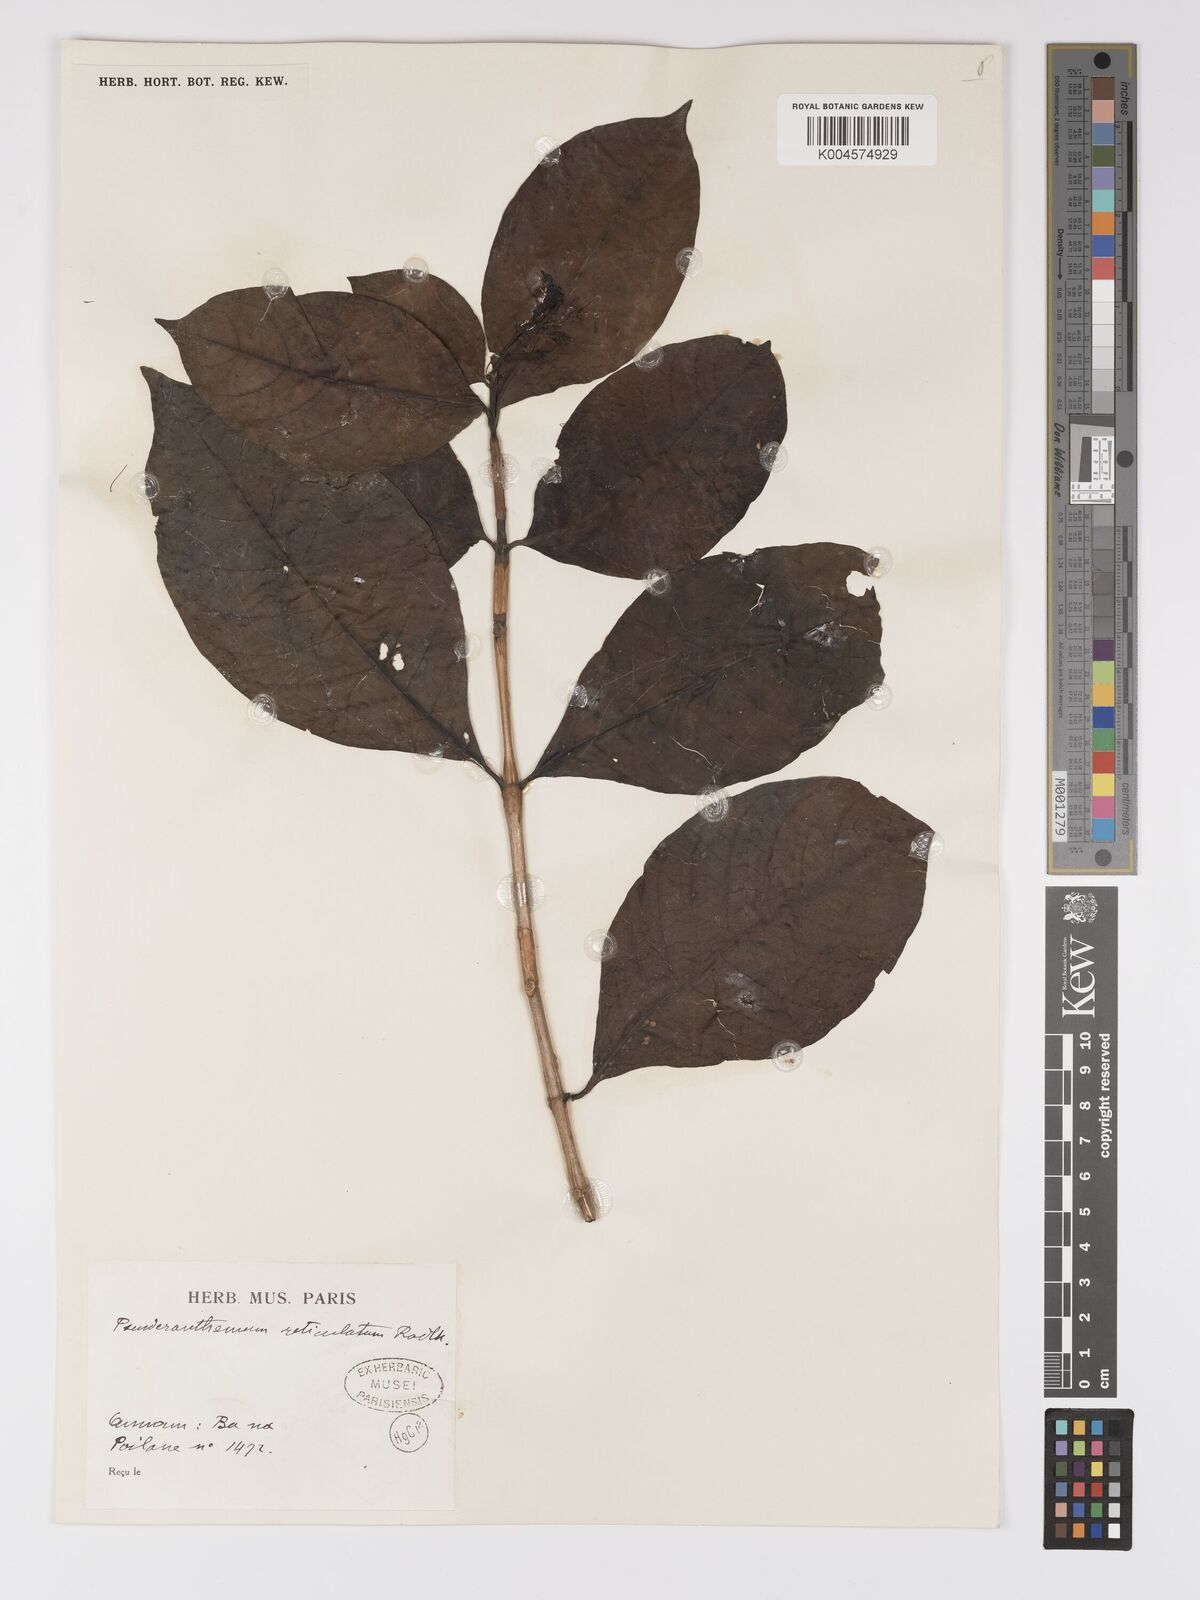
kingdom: Plantae
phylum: Tracheophyta
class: Magnoliopsida
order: Lamiales
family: Acanthaceae
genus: Pseuderanthemum
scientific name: Pseuderanthemum
